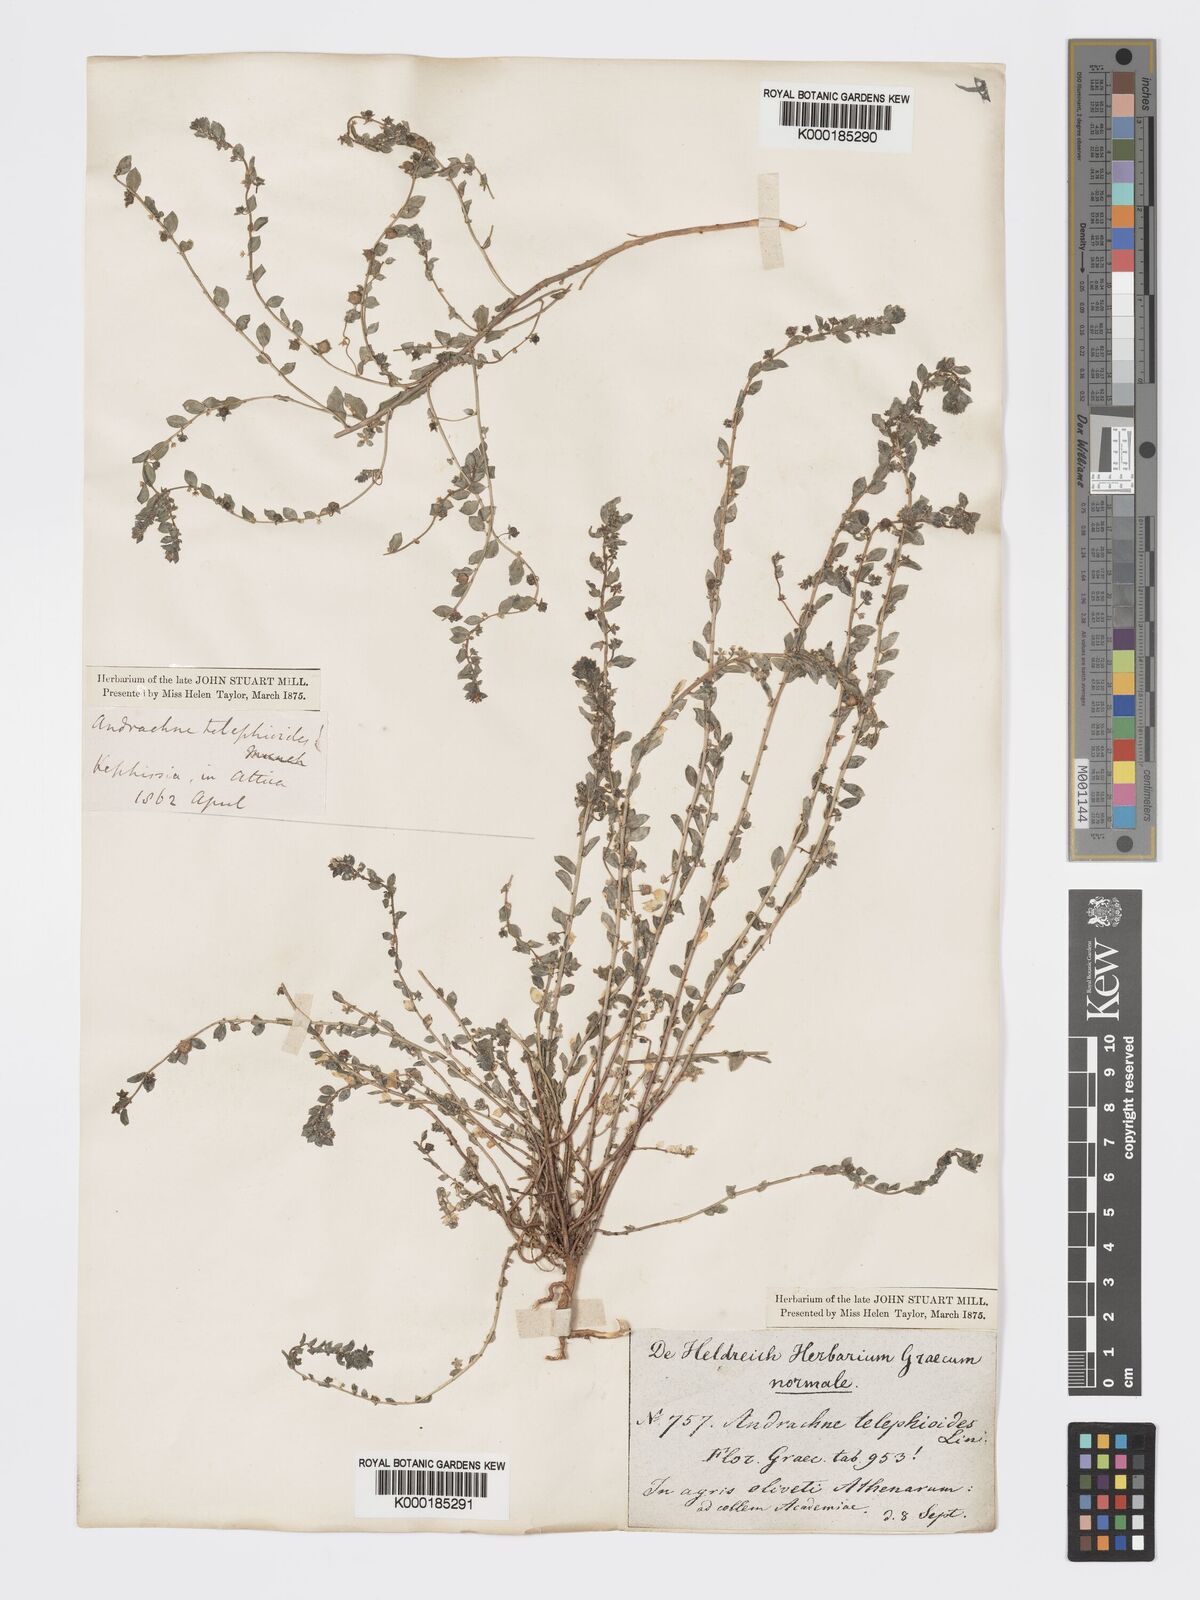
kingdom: Plantae
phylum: Tracheophyta
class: Magnoliopsida
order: Malpighiales
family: Phyllanthaceae
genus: Andrachne
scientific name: Andrachne telephioides
